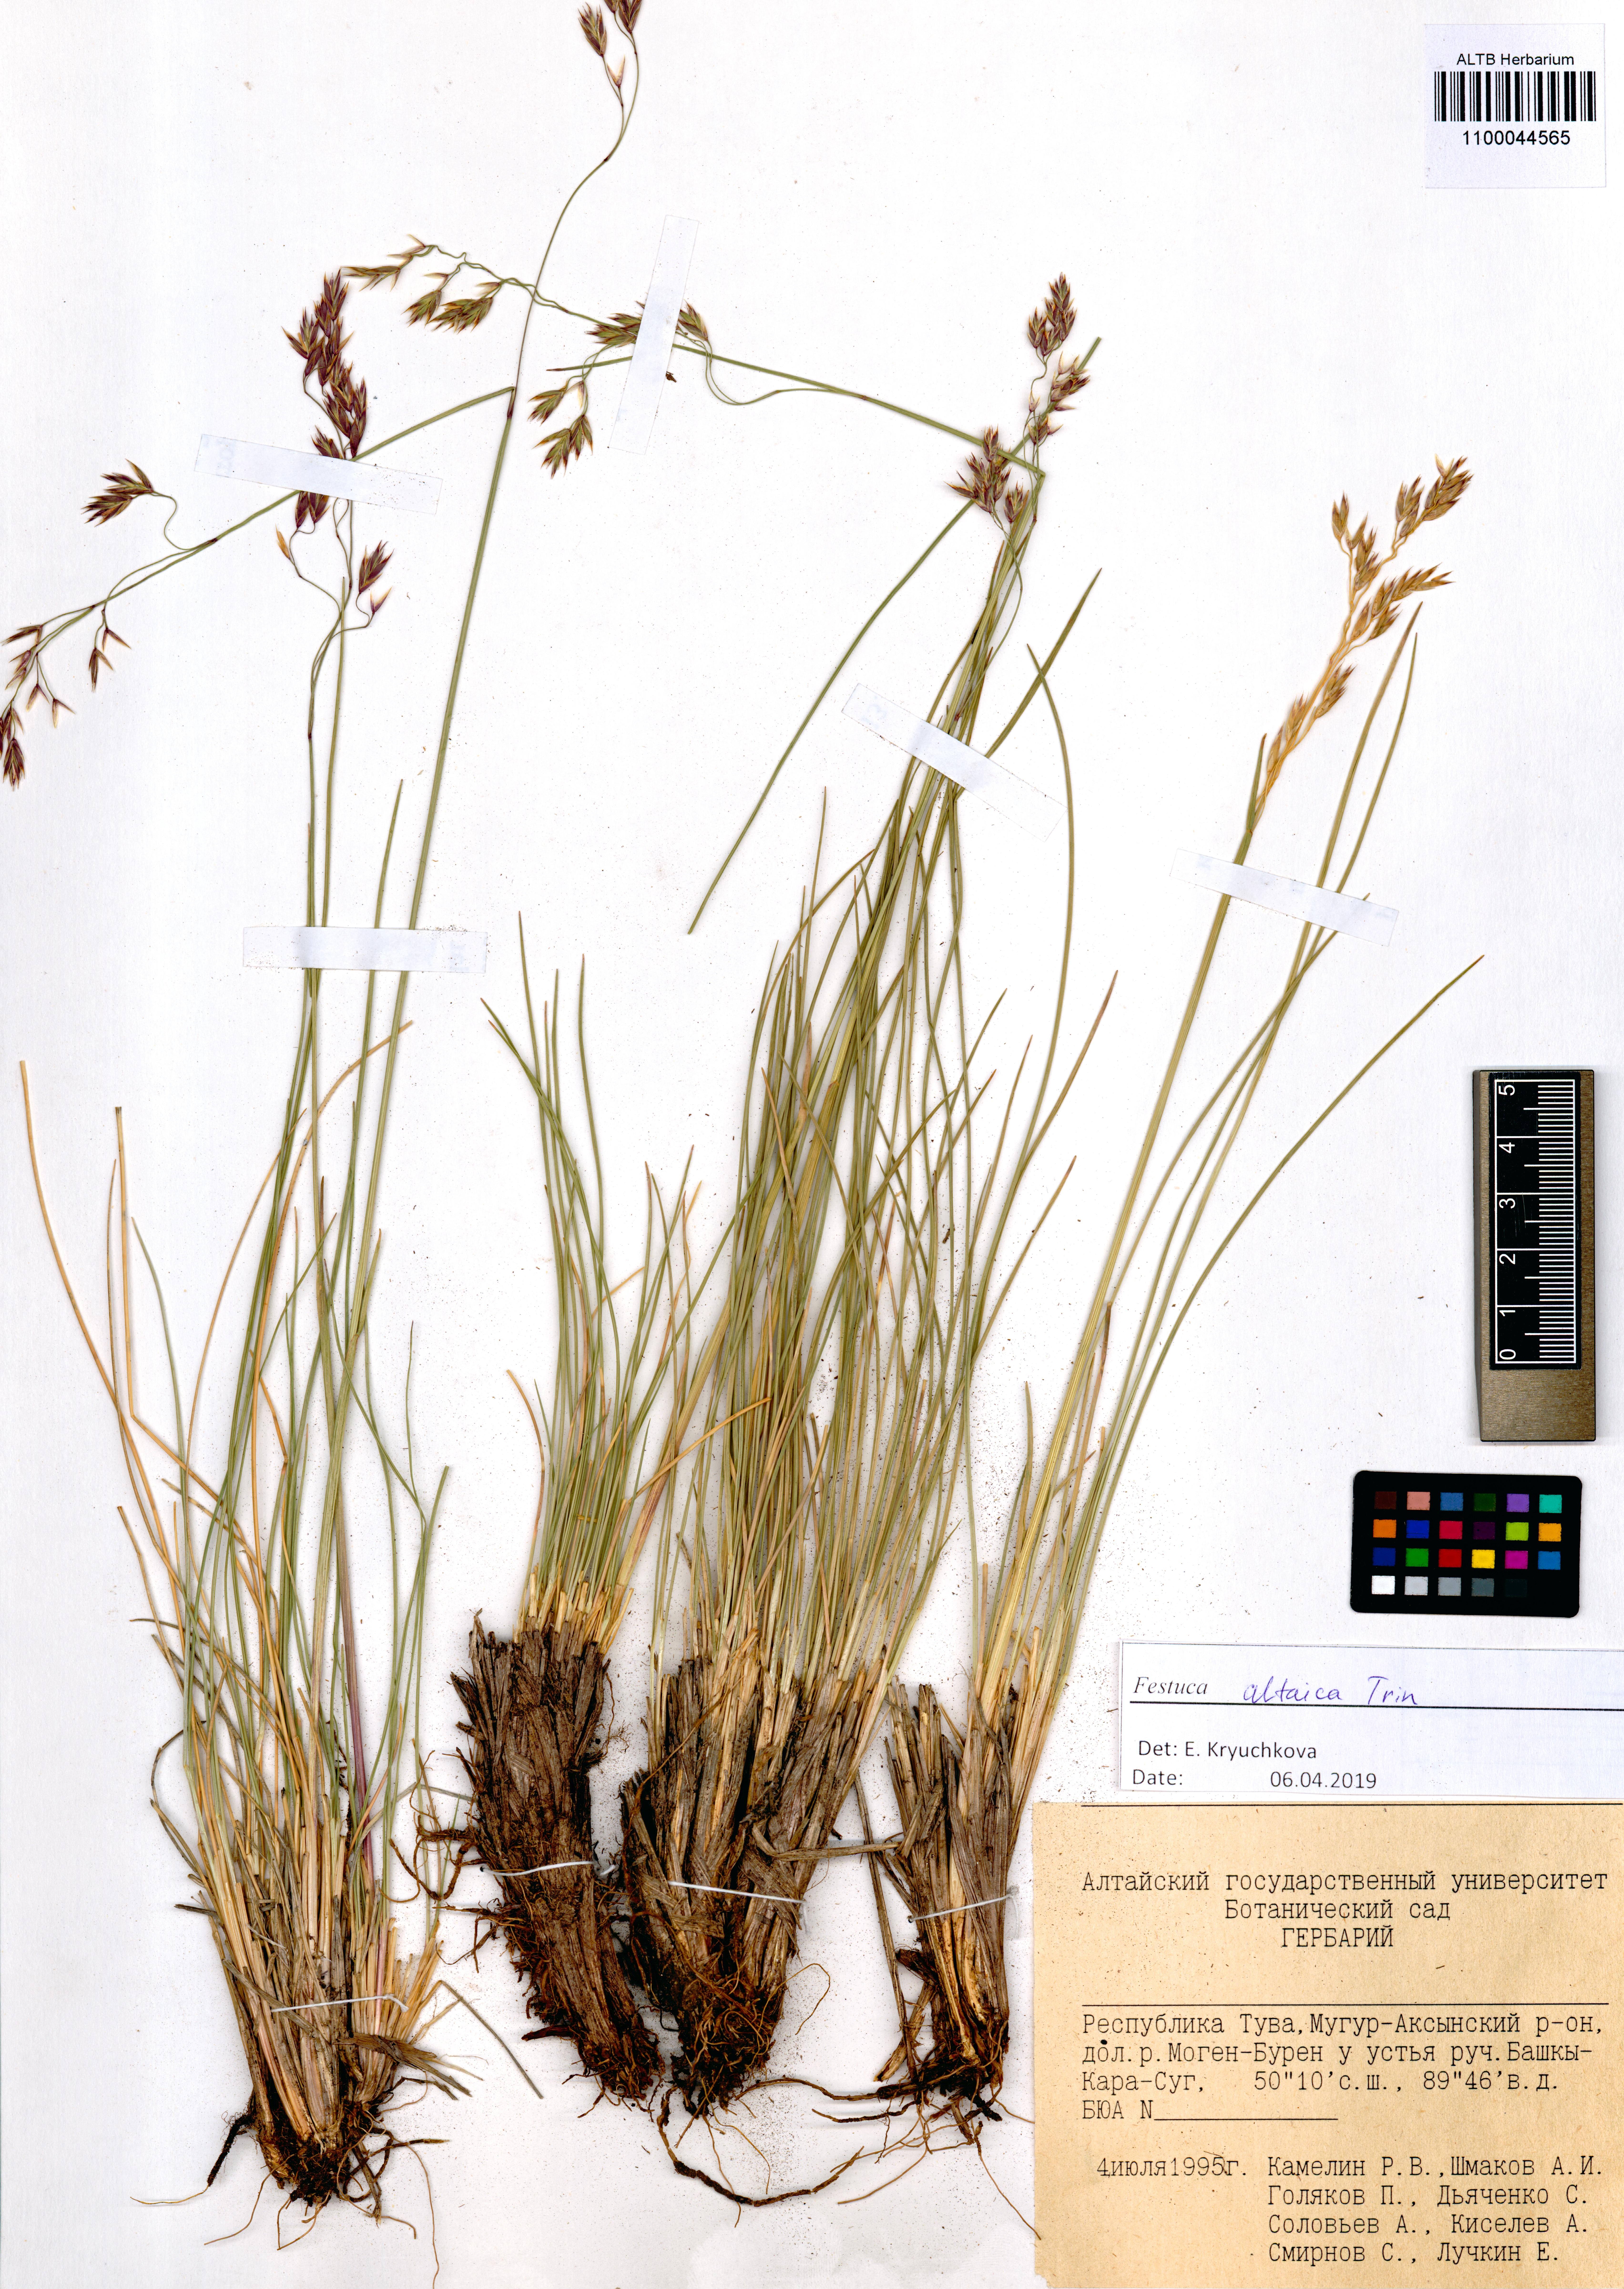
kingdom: Plantae
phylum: Tracheophyta
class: Liliopsida
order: Poales
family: Poaceae
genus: Festuca
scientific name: Festuca altaica
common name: Northern rough fescue
